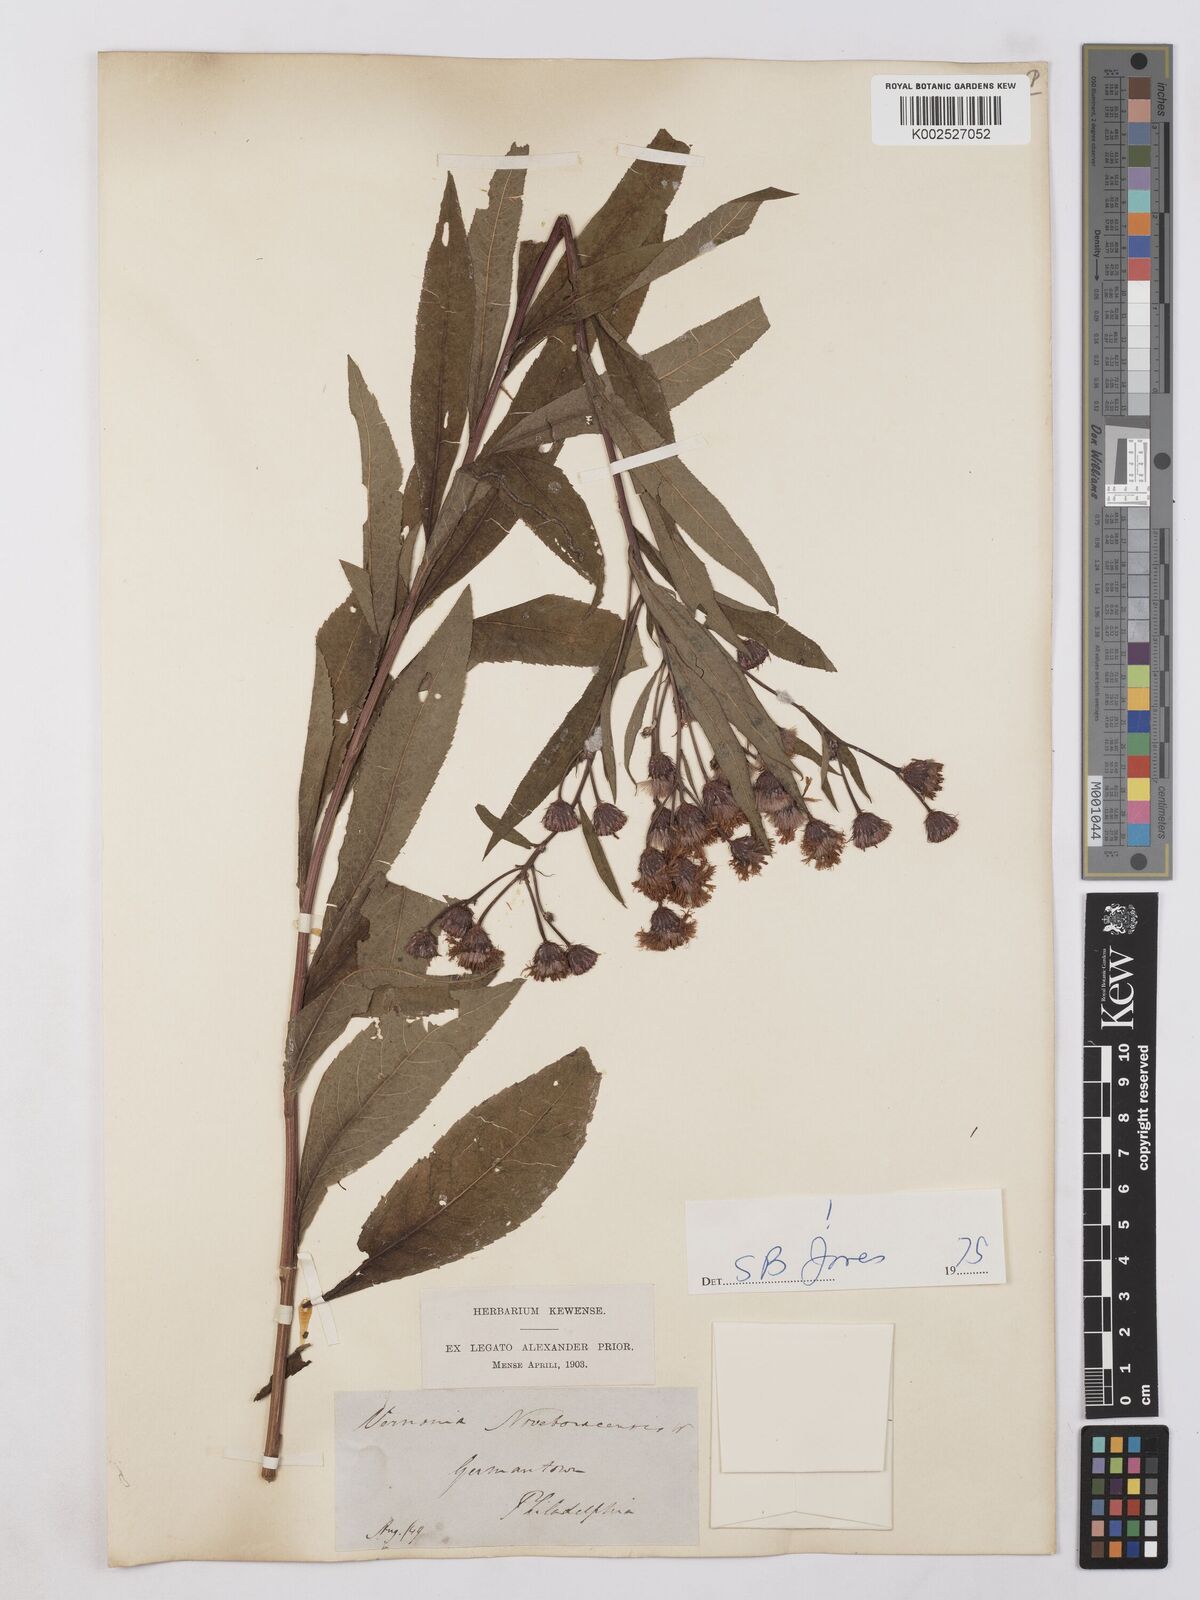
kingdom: Plantae
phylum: Tracheophyta
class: Magnoliopsida
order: Asterales
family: Asteraceae
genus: Vernonia
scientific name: Vernonia noveboracensis
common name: New york ironweed
